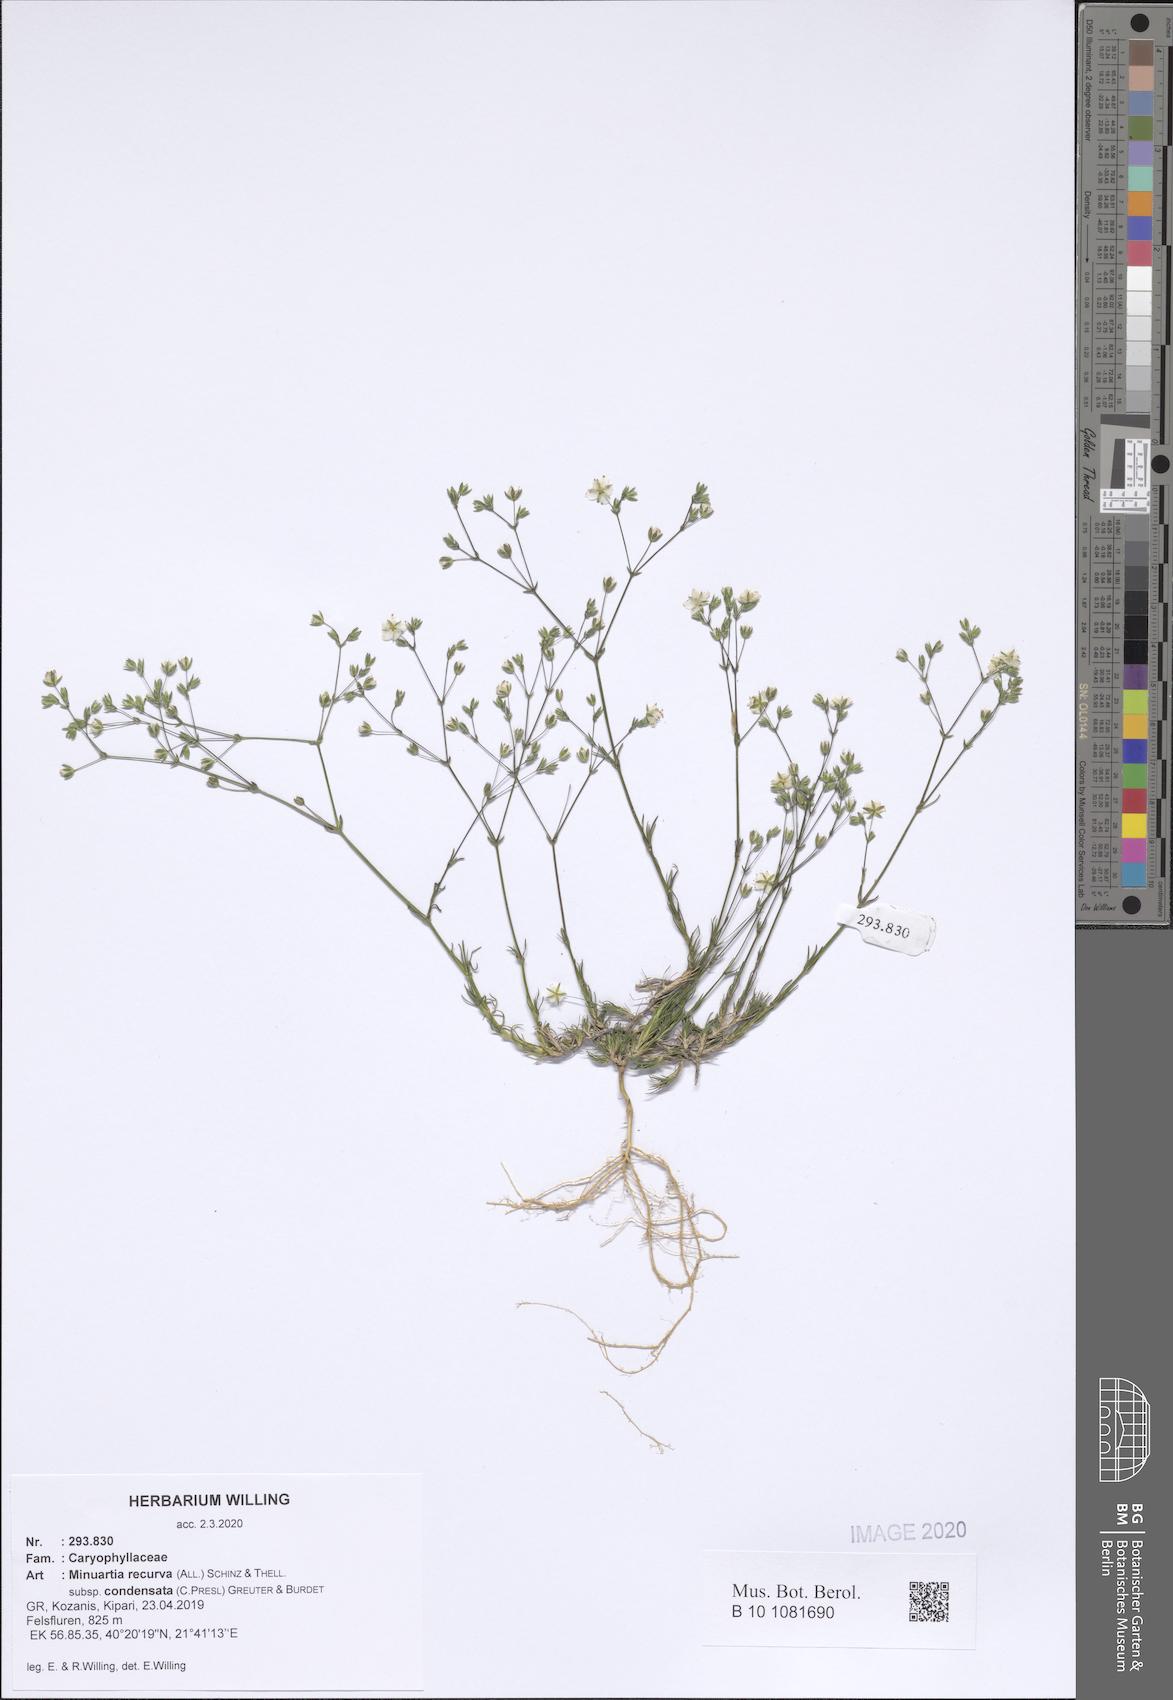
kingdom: Plantae
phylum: Tracheophyta
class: Magnoliopsida
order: Caryophyllales
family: Caryophyllaceae
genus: Minuartia
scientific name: Minuartia recurva
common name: Recurved sandwort
